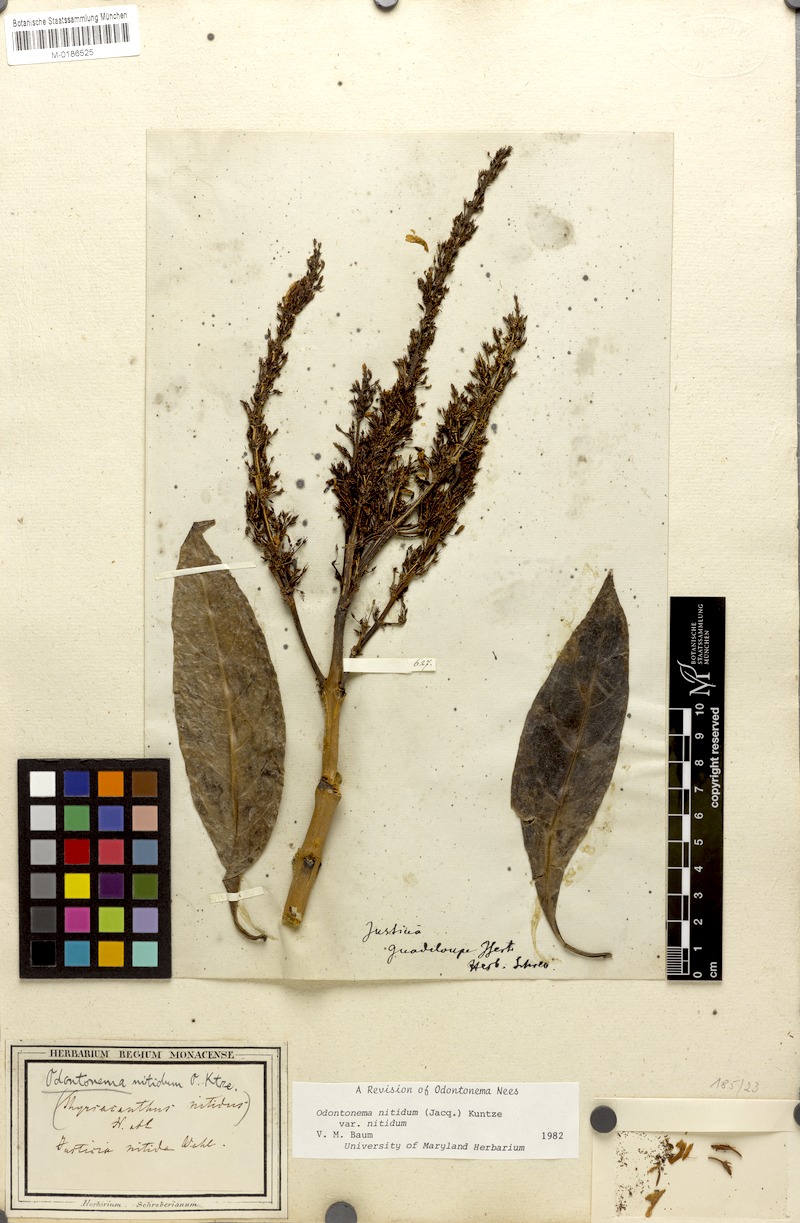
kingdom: Plantae
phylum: Tracheophyta
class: Magnoliopsida
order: Lamiales
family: Acanthaceae
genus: Odontonema
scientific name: Odontonema nitidum
